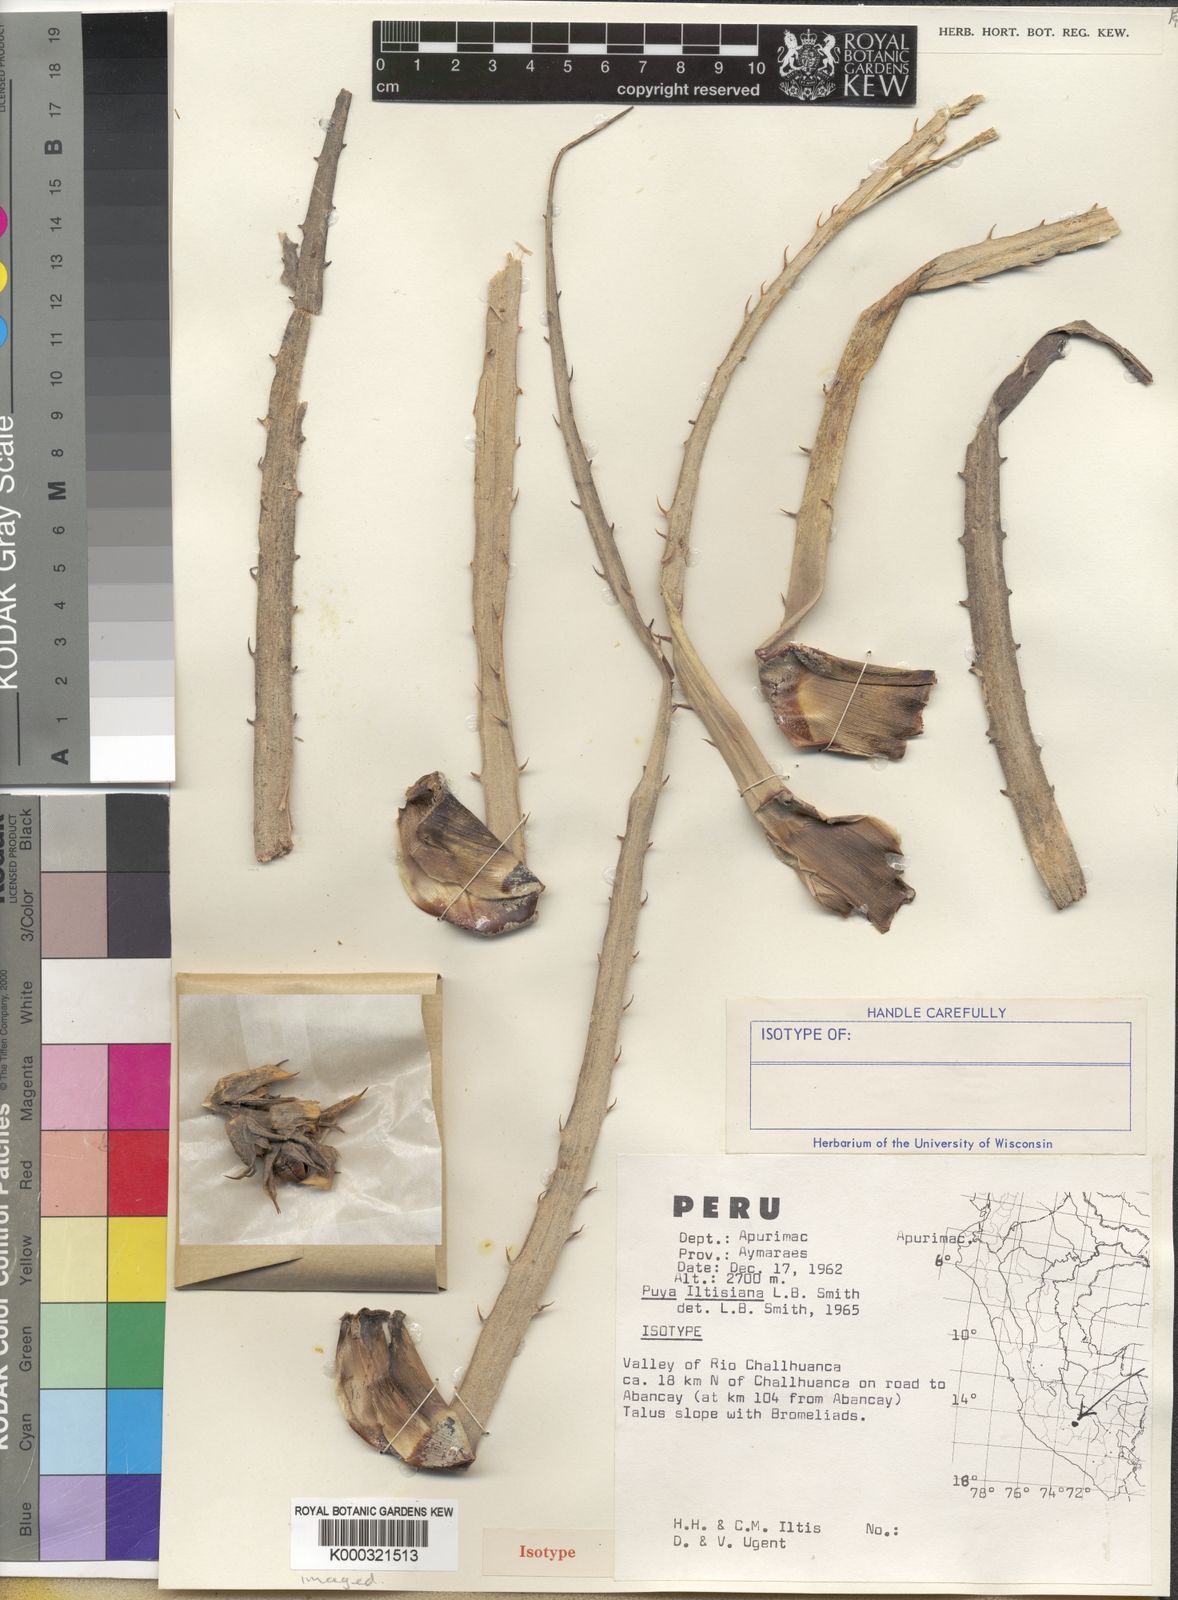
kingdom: Plantae
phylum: Tracheophyta
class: Liliopsida
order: Poales
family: Bromeliaceae
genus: Puya
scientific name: Puya iltisiana
